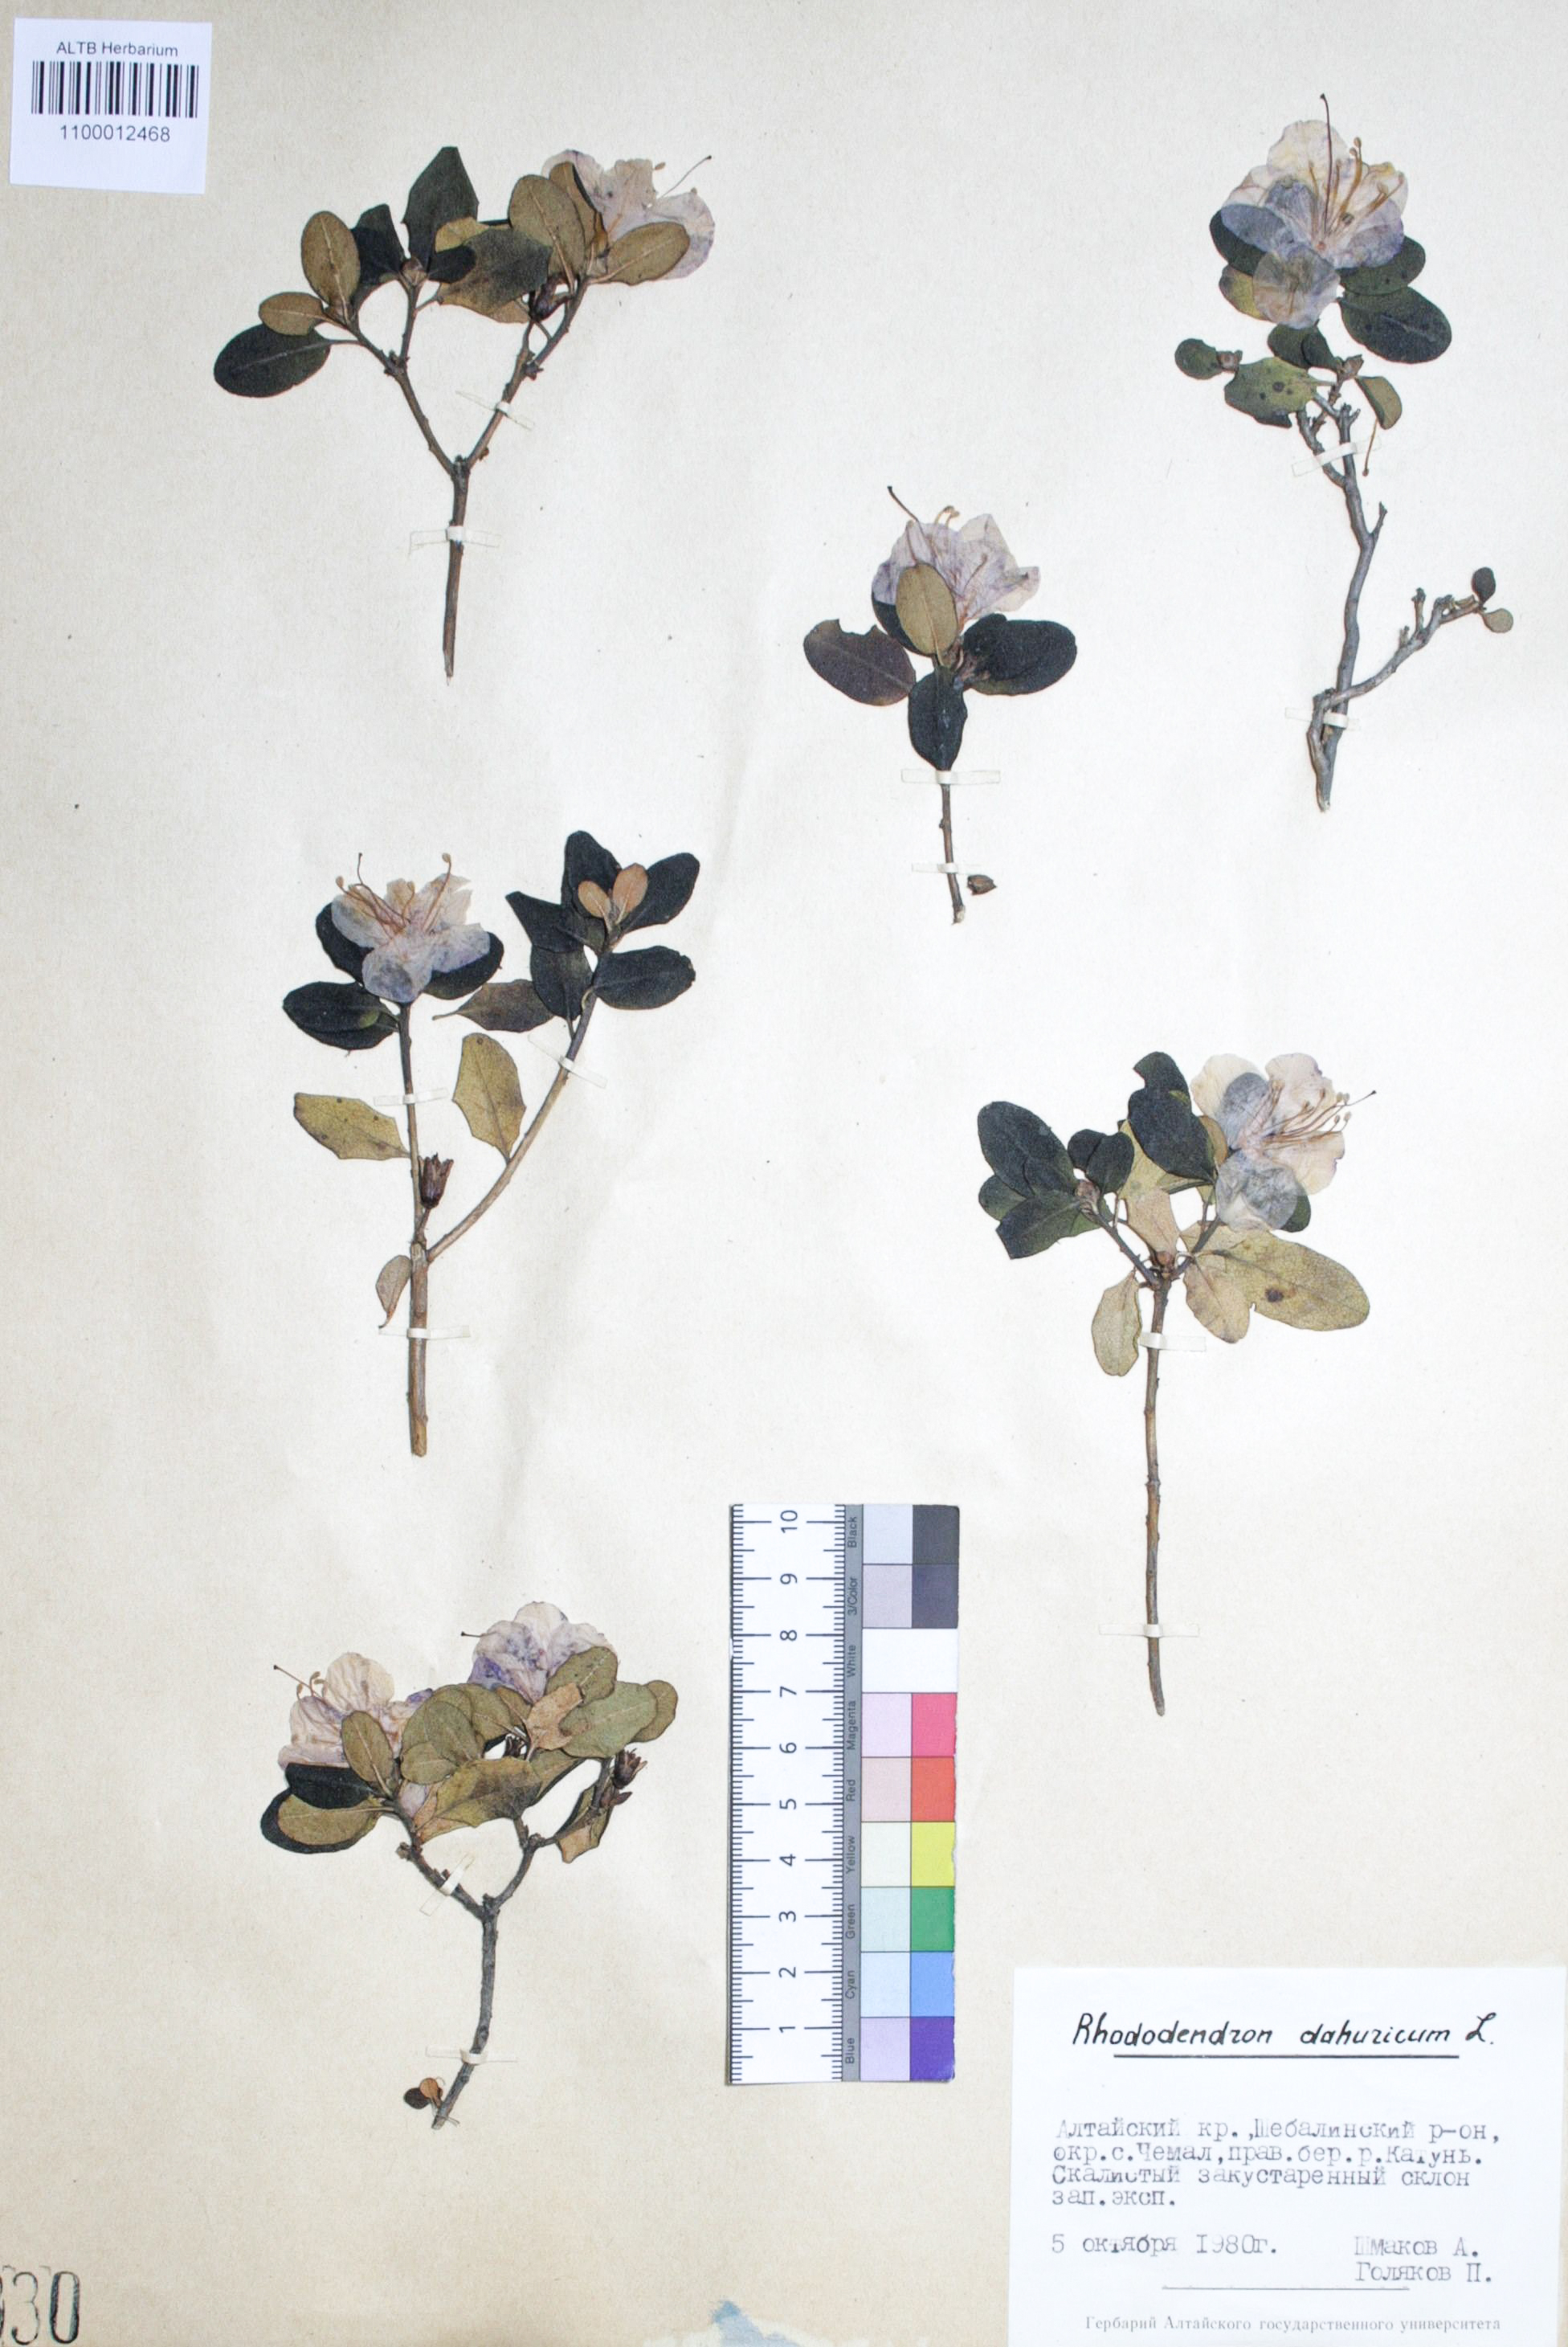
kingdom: Plantae
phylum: Tracheophyta
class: Magnoliopsida
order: Ericales
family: Ericaceae
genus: Rhododendron
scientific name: Rhododendron dahuricum
